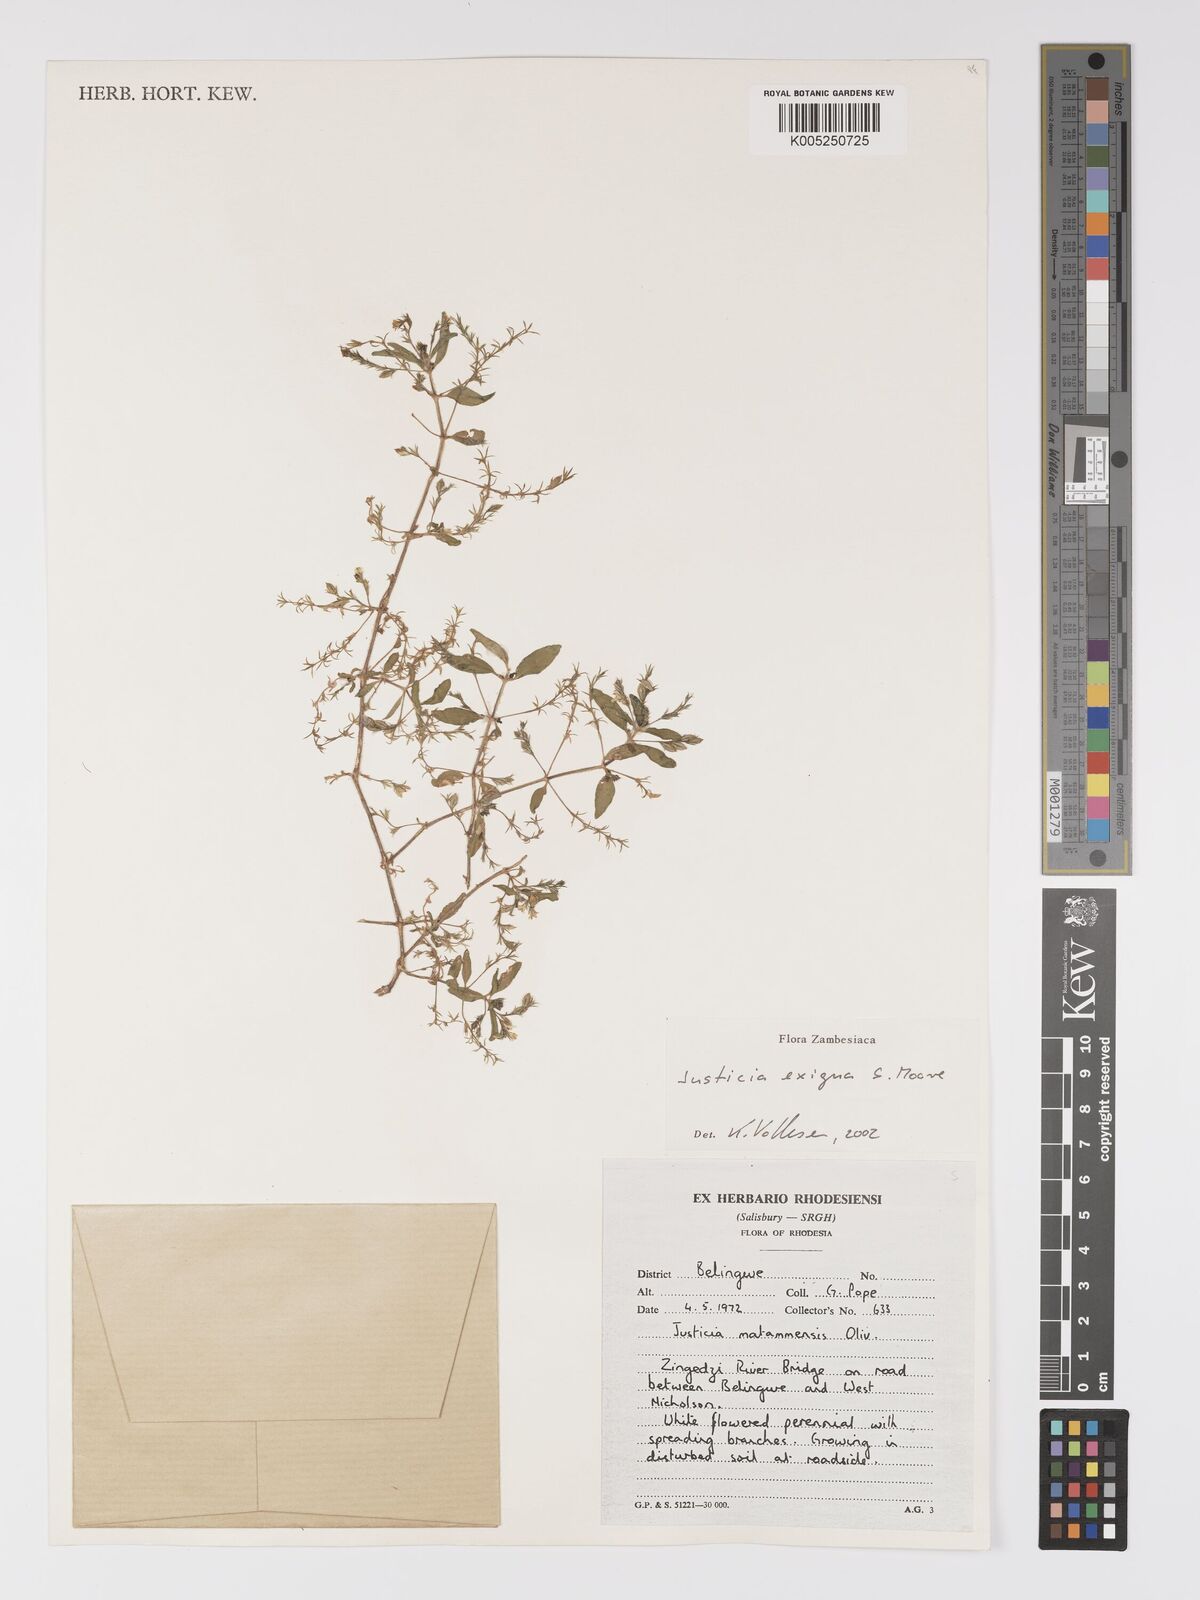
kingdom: Plantae
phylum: Tracheophyta
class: Magnoliopsida
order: Lamiales
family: Acanthaceae
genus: Justicia
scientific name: Justicia exigua
